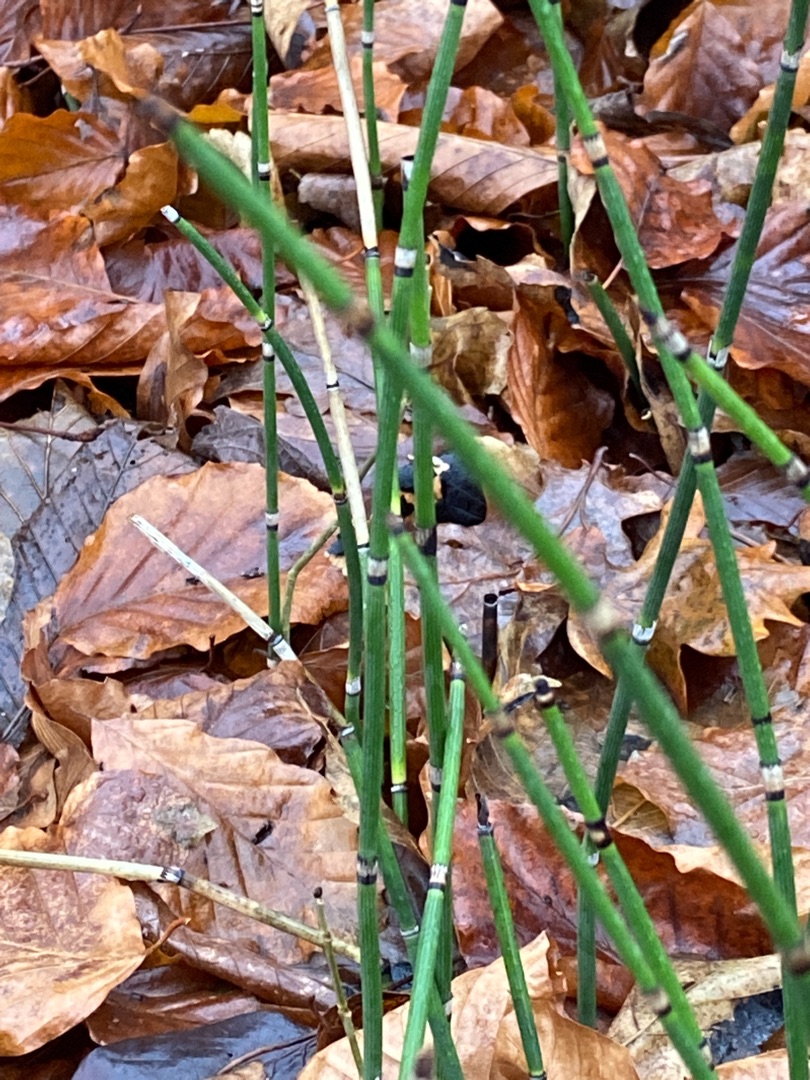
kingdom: Plantae
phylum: Tracheophyta
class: Polypodiopsida
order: Equisetales
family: Equisetaceae
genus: Equisetum
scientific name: Equisetum hyemale
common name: Skavgræs
